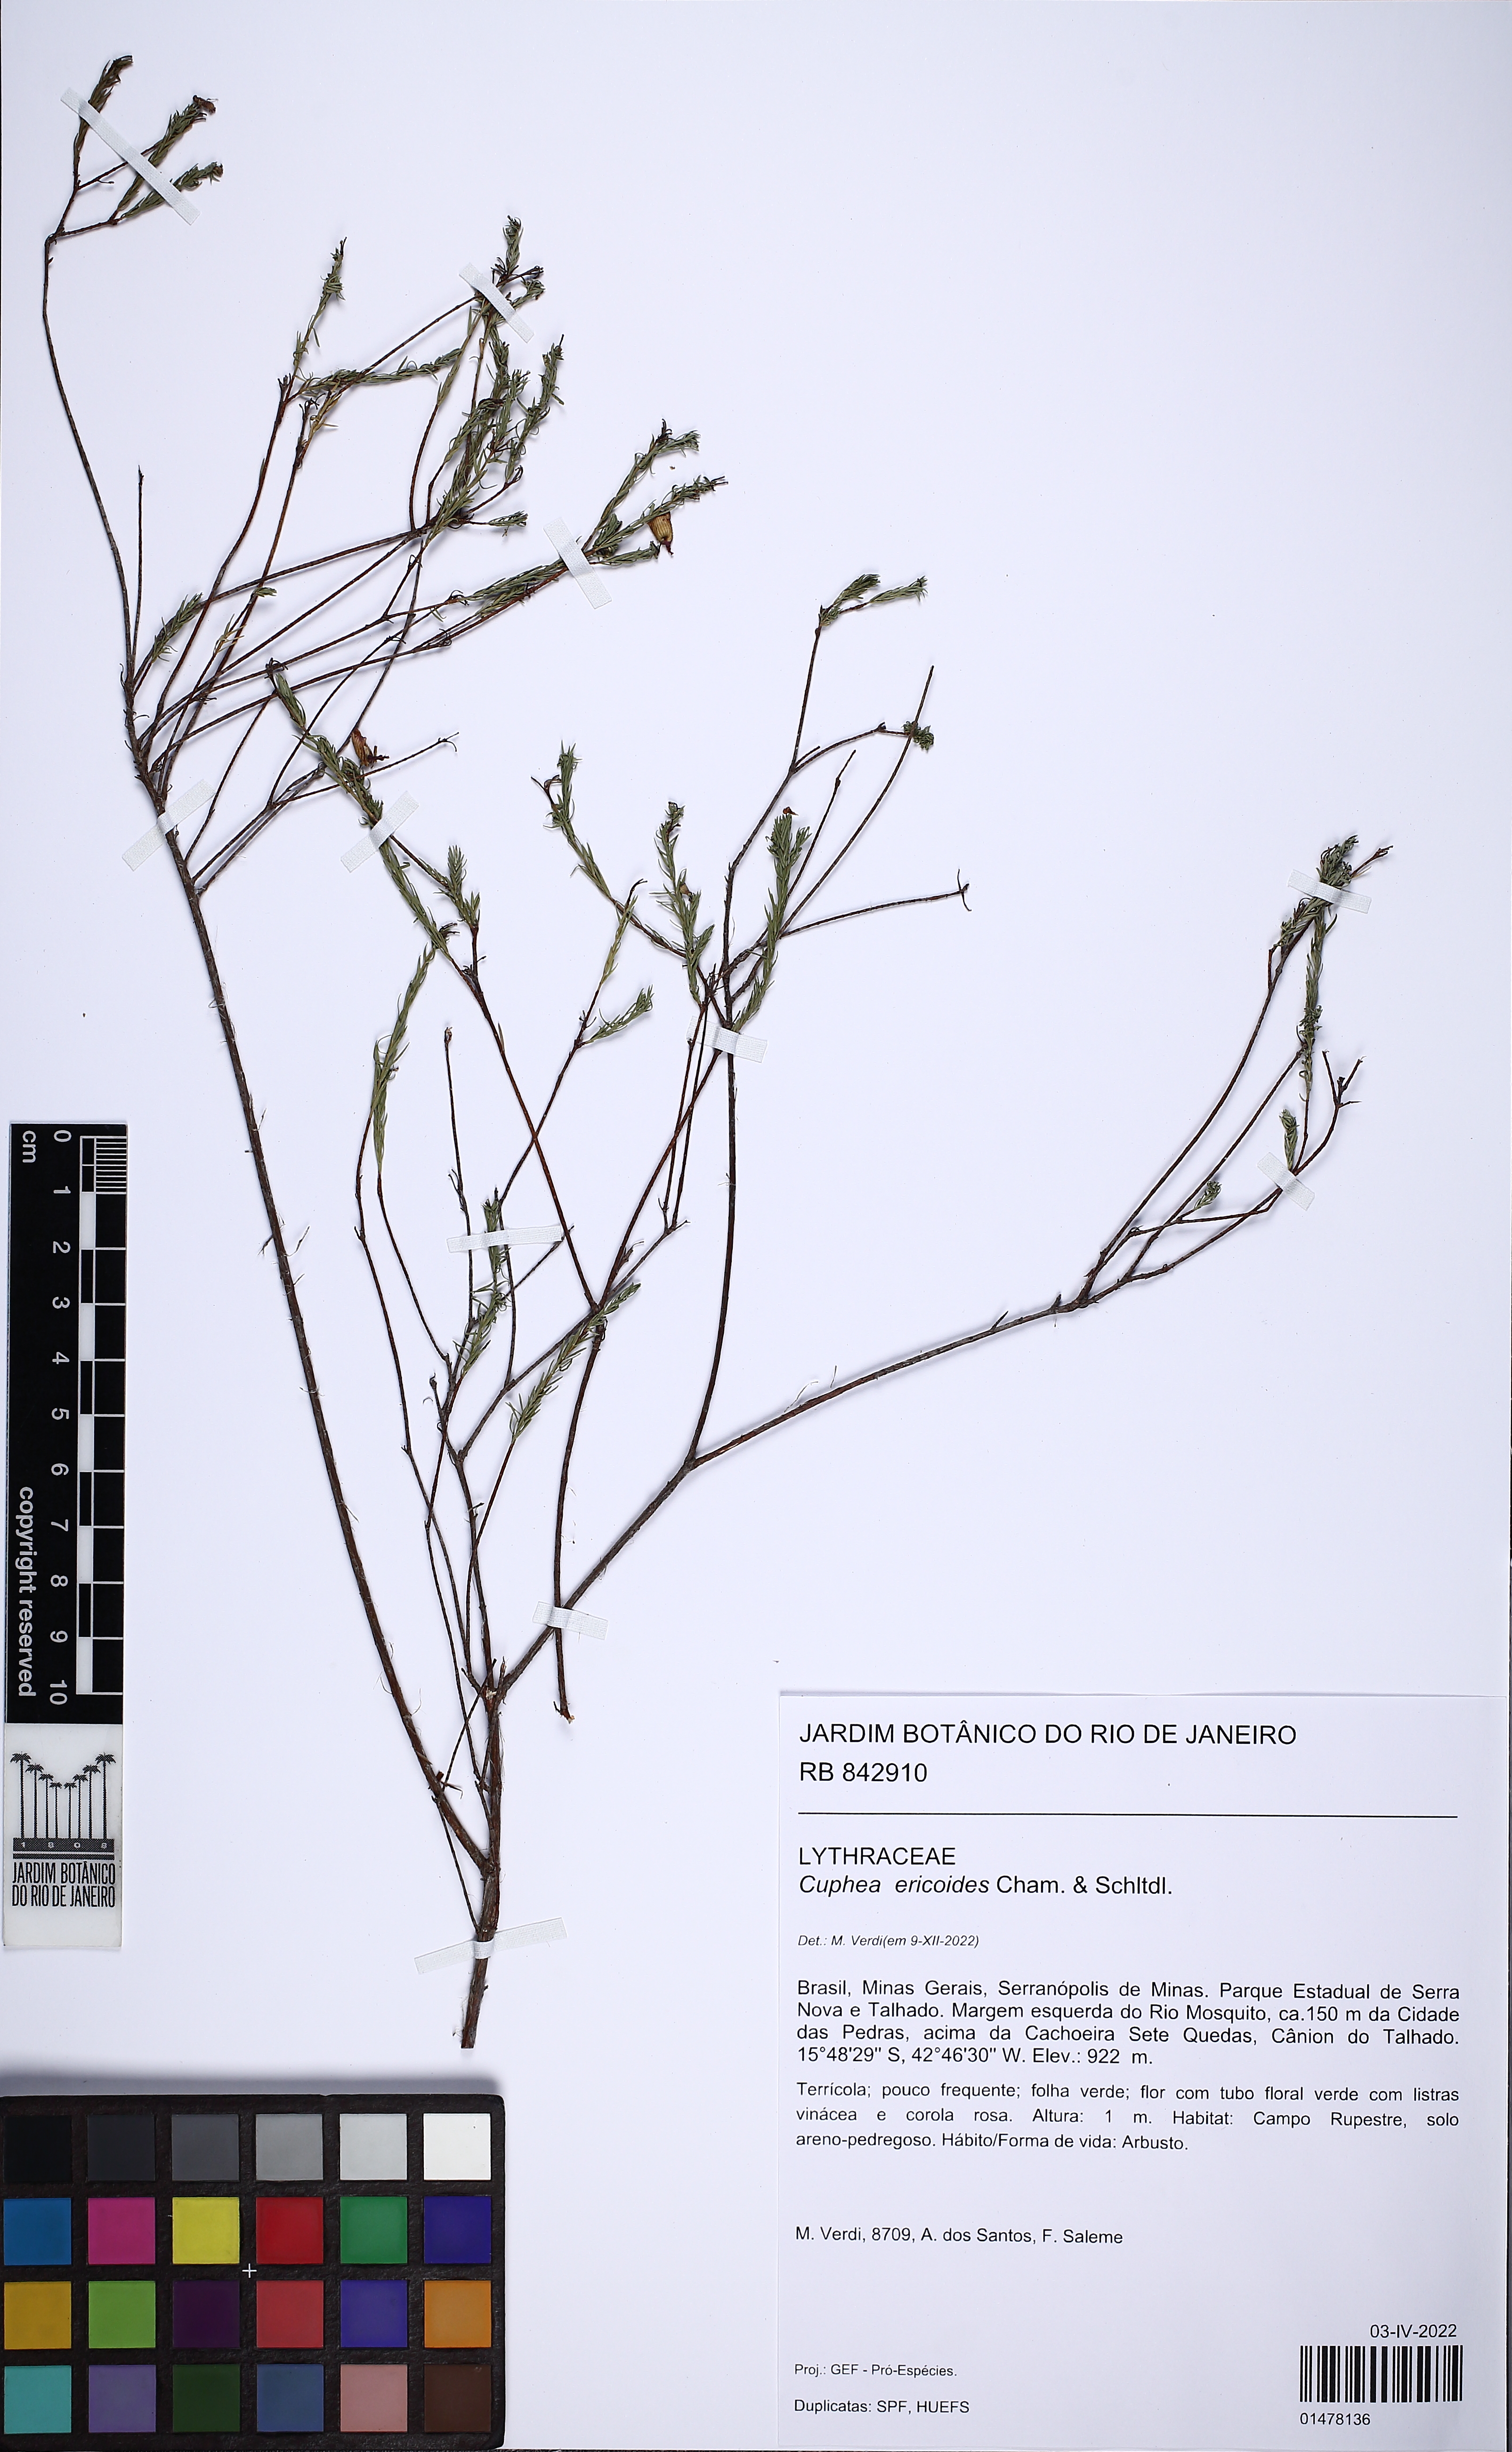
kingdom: Plantae
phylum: Tracheophyta
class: Magnoliopsida
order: Myrtales
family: Lythraceae
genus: Cuphea
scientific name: Cuphea ericoides
